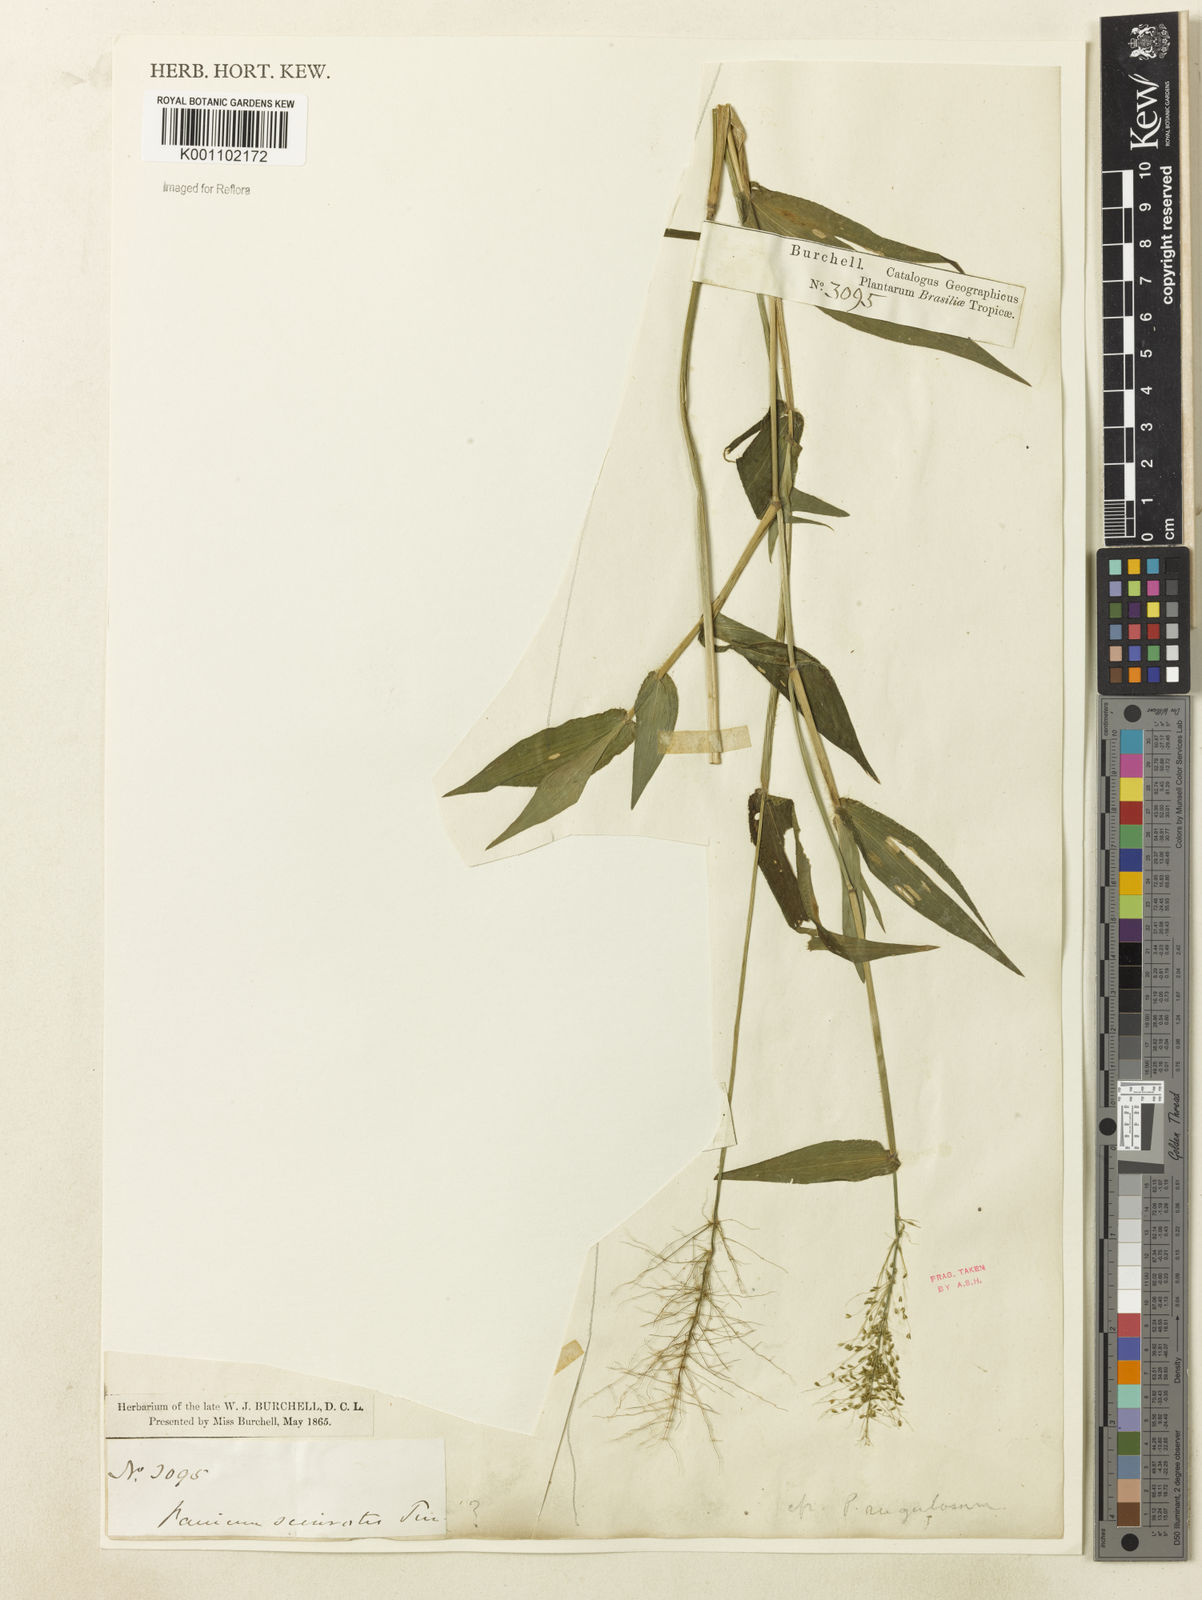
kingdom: Plantae
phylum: Tracheophyta
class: Liliopsida
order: Poales
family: Poaceae
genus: Dichanthelium
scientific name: Dichanthelium sciurotoides
